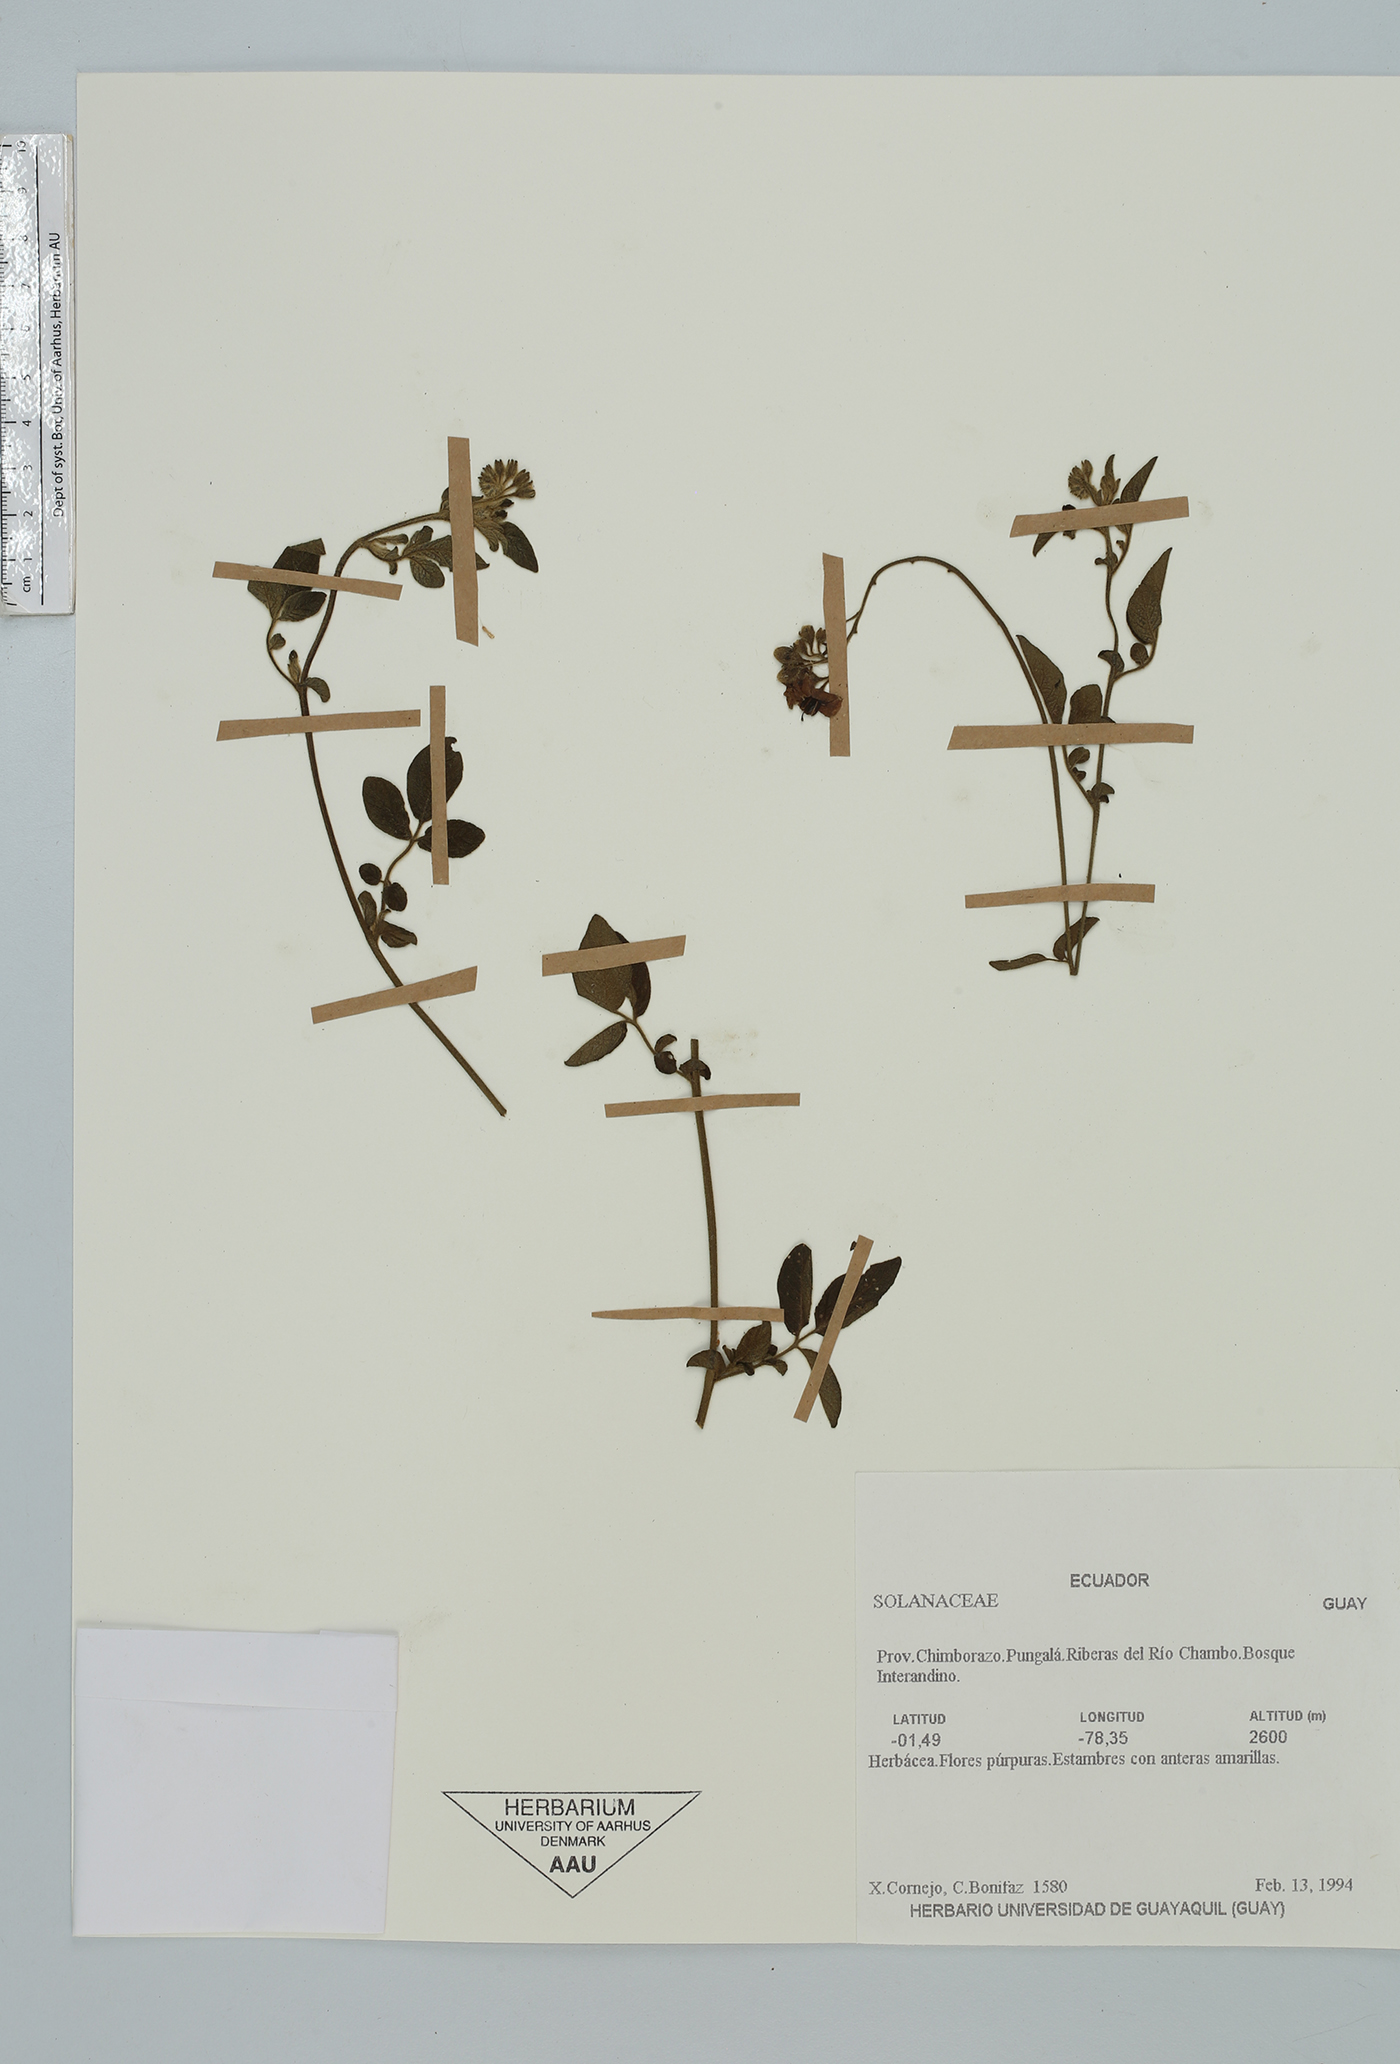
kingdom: Plantae
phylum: Tracheophyta
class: Magnoliopsida
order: Solanales
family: Solanaceae
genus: Solanum
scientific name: Solanum
